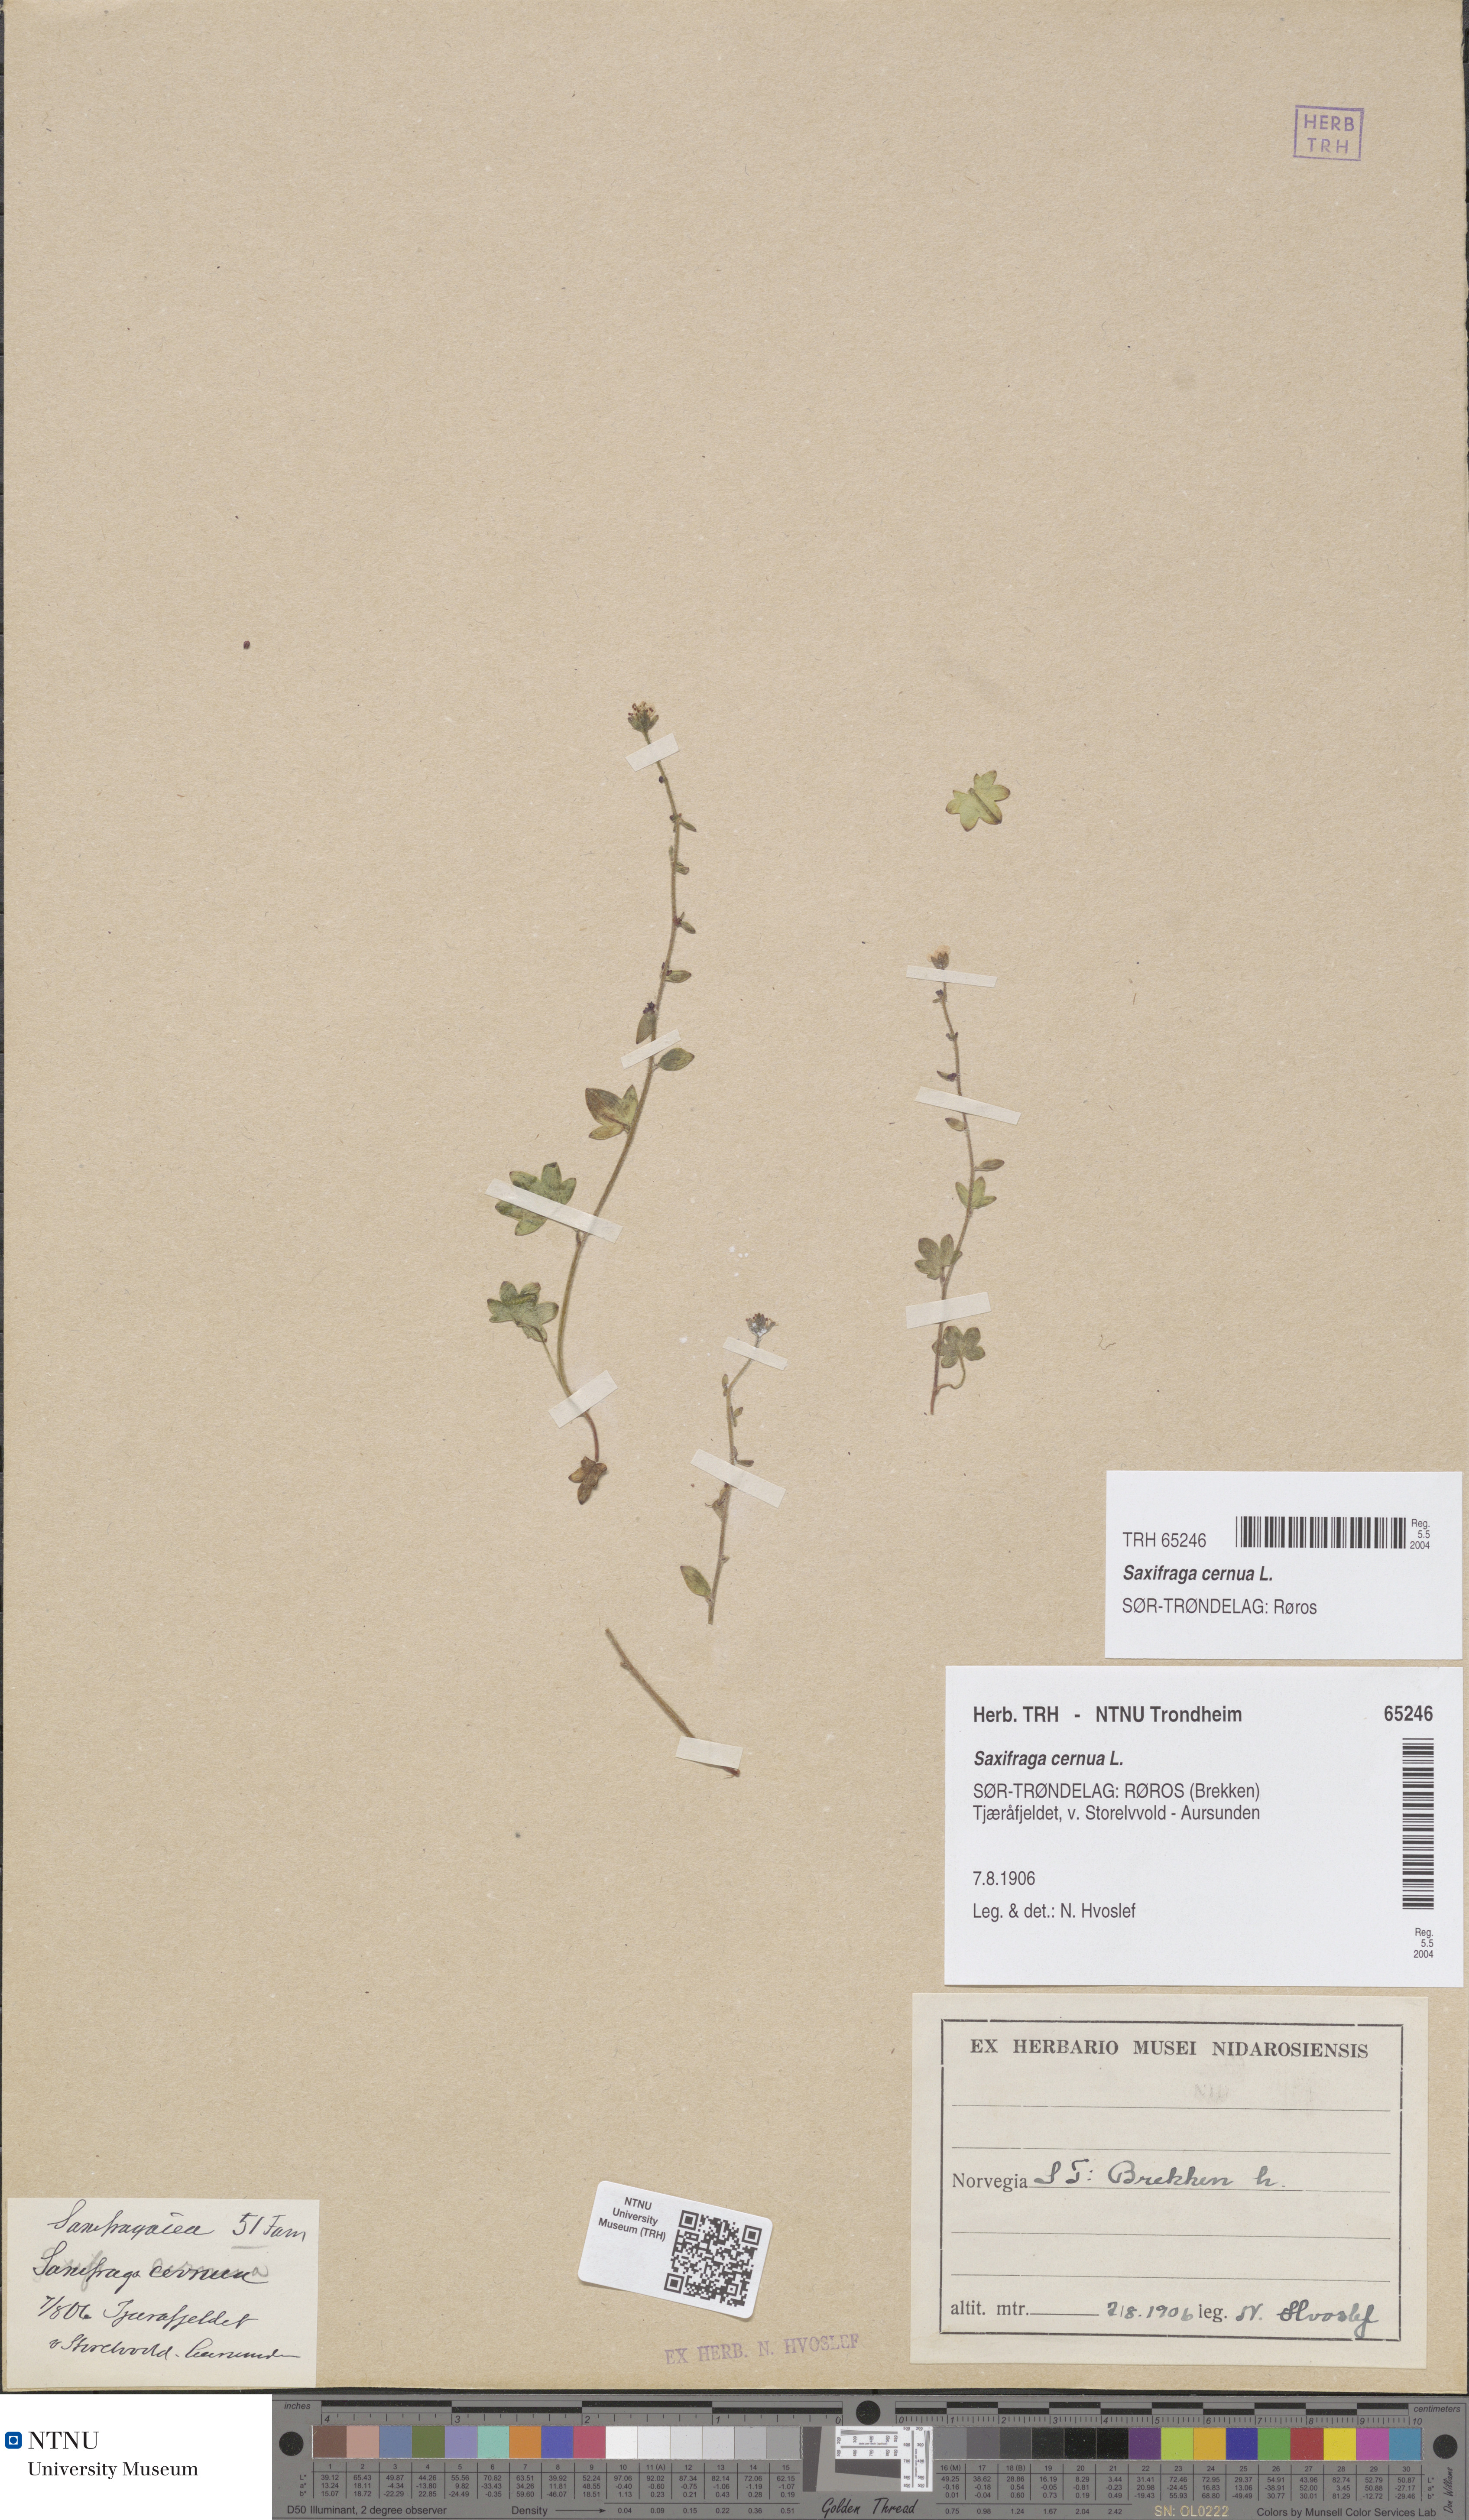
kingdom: Plantae
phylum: Tracheophyta
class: Magnoliopsida
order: Saxifragales
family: Saxifragaceae
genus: Saxifraga
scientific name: Saxifraga cernua
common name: Drooping saxifrage
